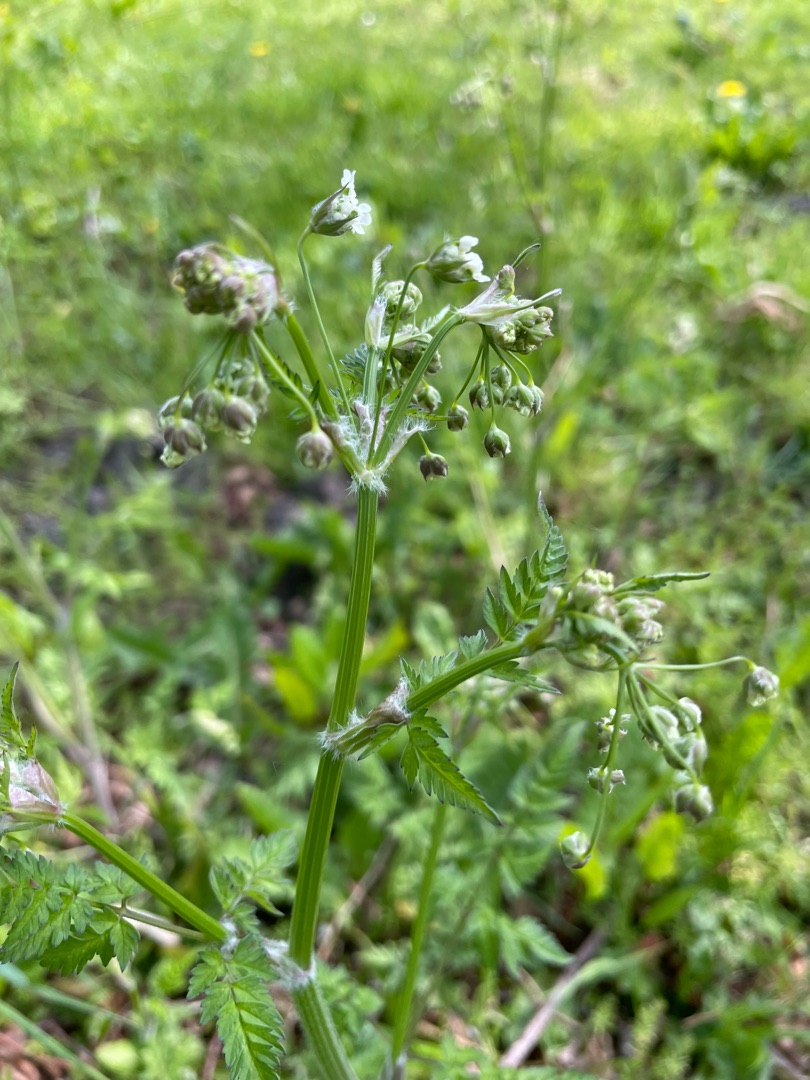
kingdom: Plantae
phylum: Tracheophyta
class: Magnoliopsida
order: Apiales
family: Apiaceae
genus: Anthriscus
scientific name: Anthriscus sylvestris
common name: Vild kørvel
